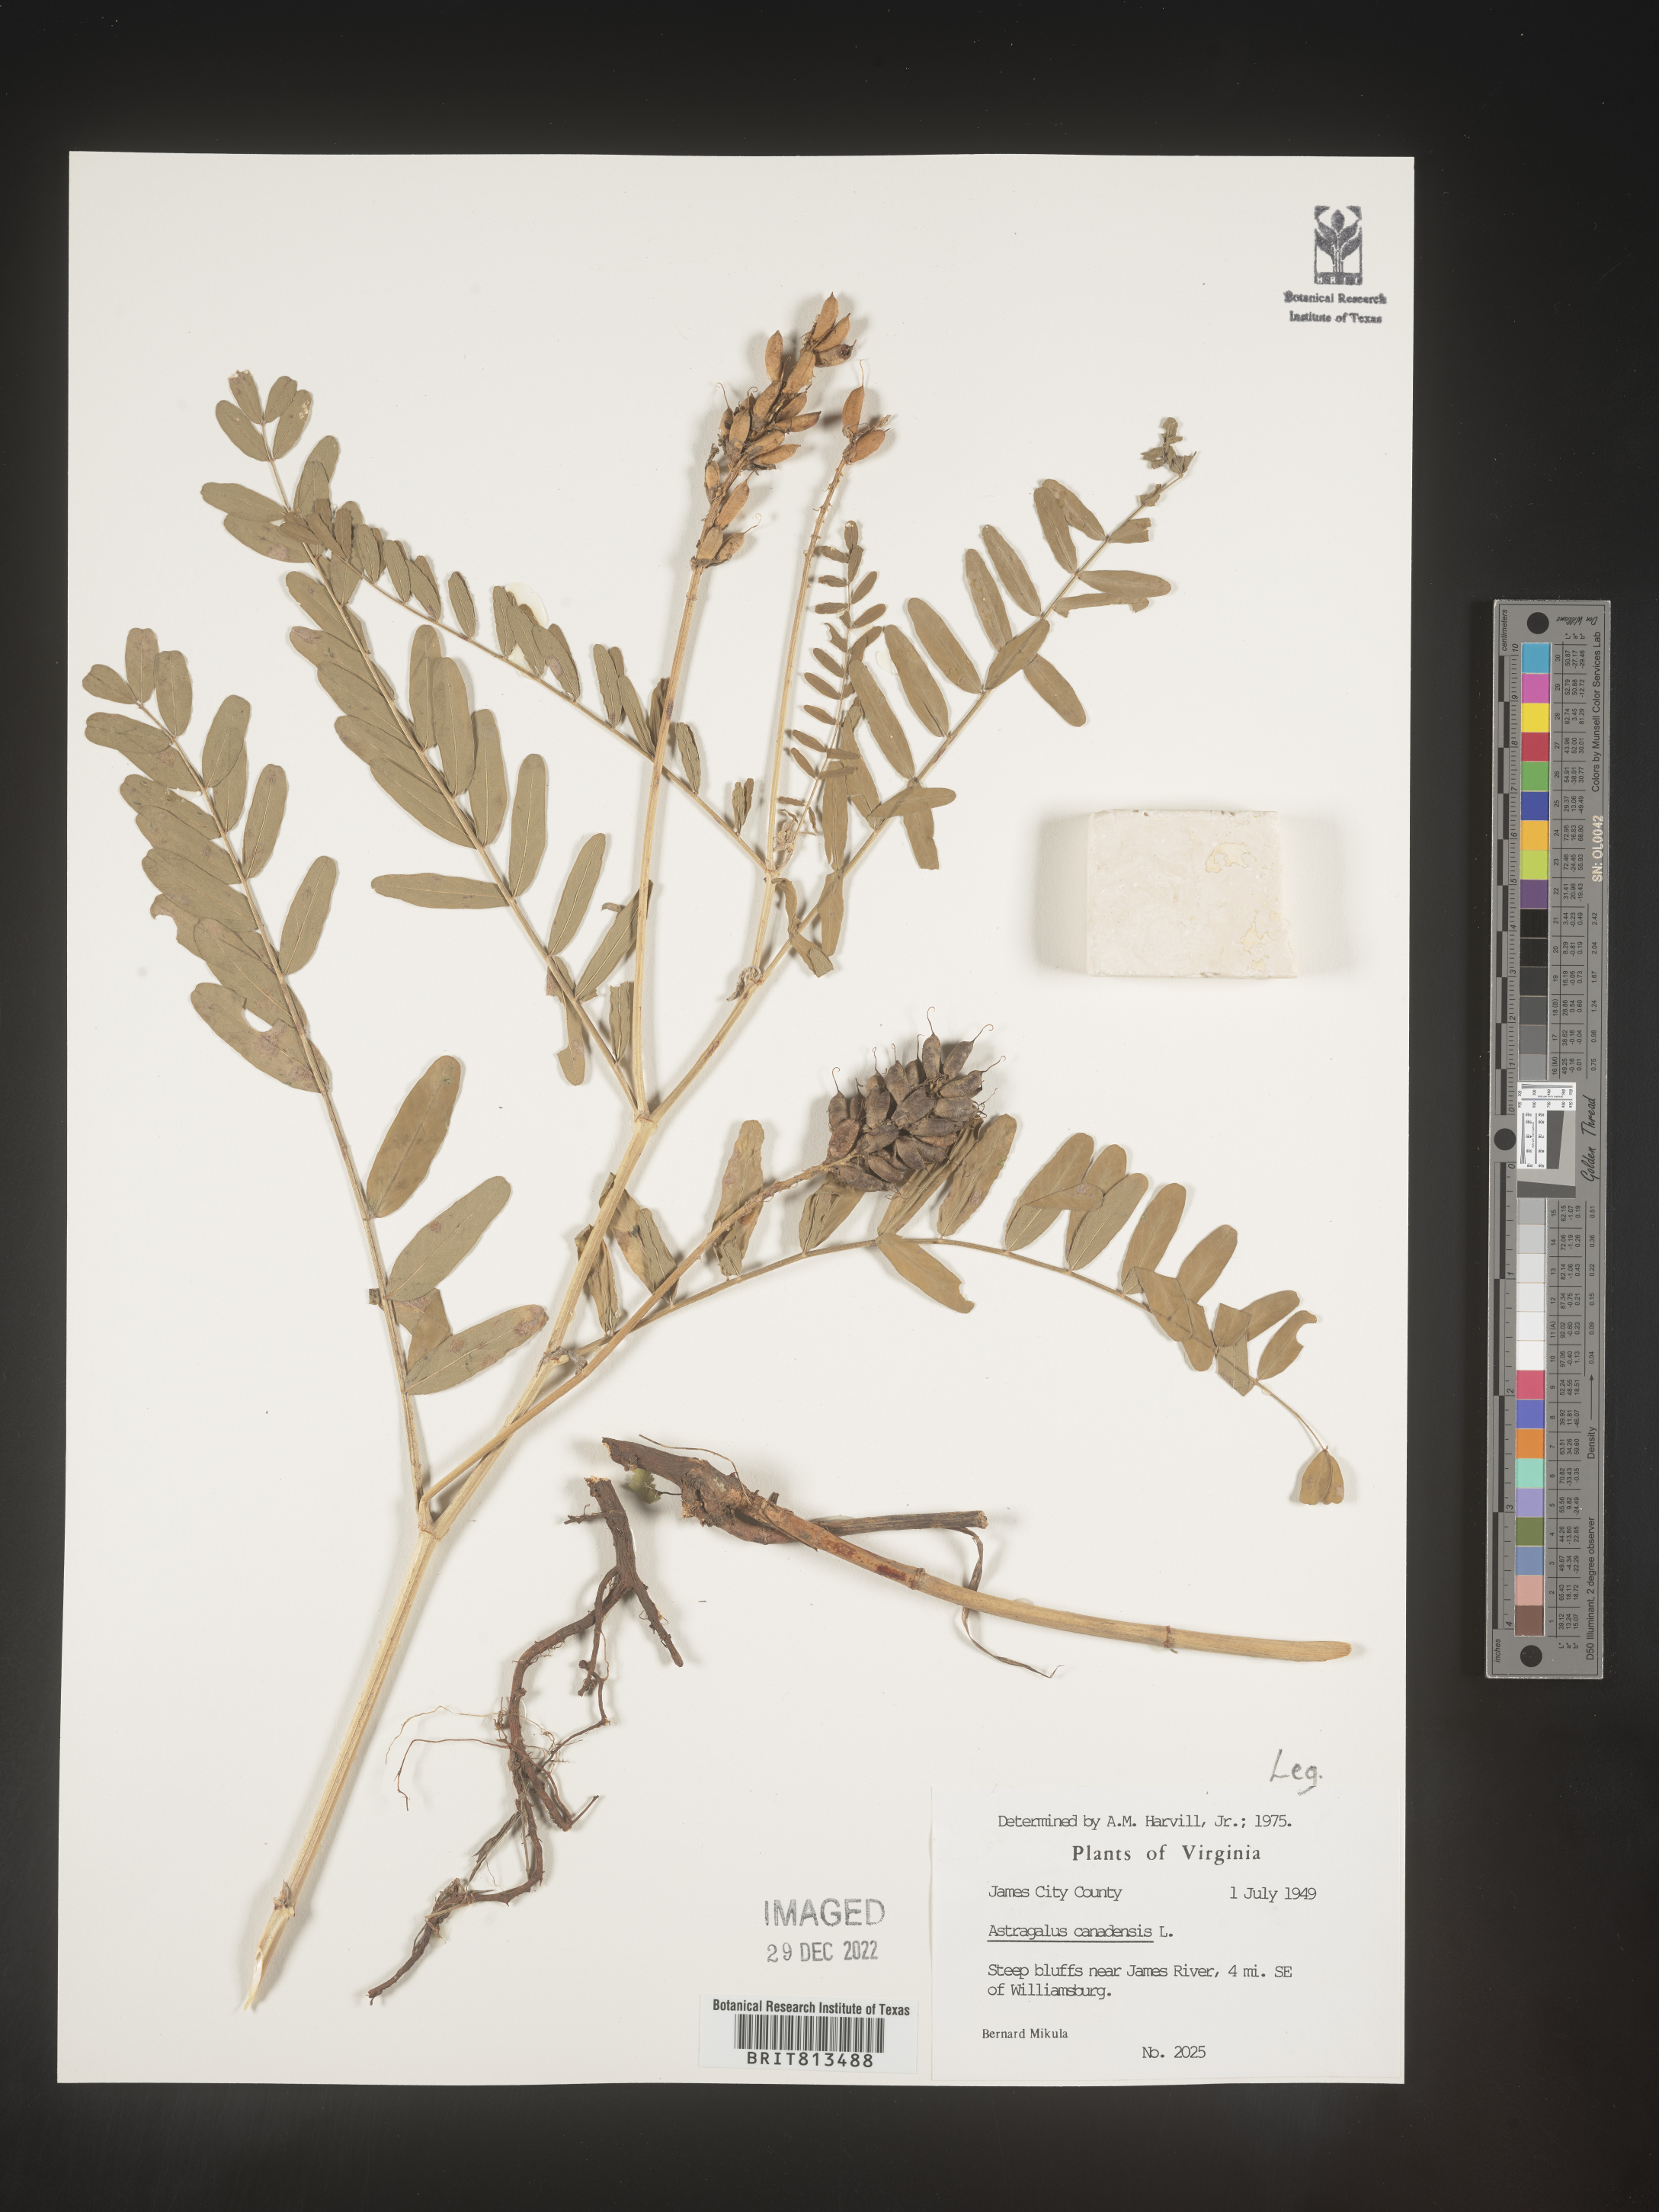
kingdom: Plantae
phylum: Tracheophyta
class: Magnoliopsida
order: Fabales
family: Fabaceae
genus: Astragalus
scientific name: Astragalus canadensis
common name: Canada milk-vetch
